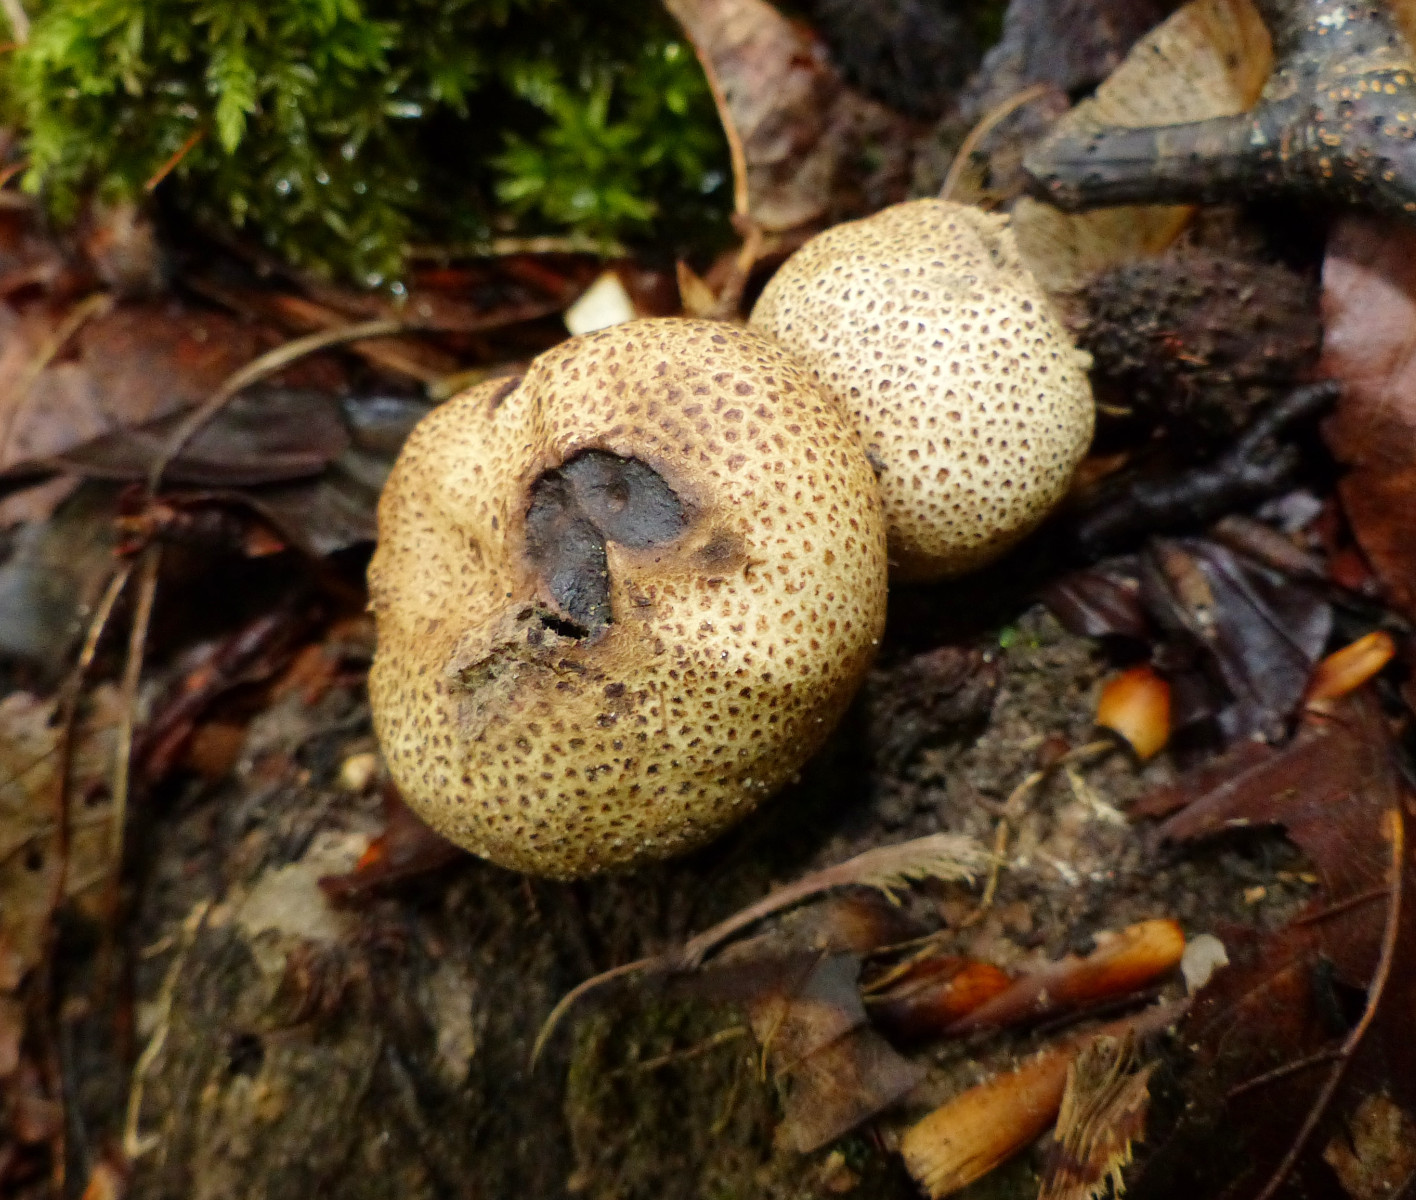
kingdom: Fungi
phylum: Basidiomycota
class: Agaricomycetes
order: Boletales
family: Sclerodermataceae
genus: Scleroderma
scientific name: Scleroderma
